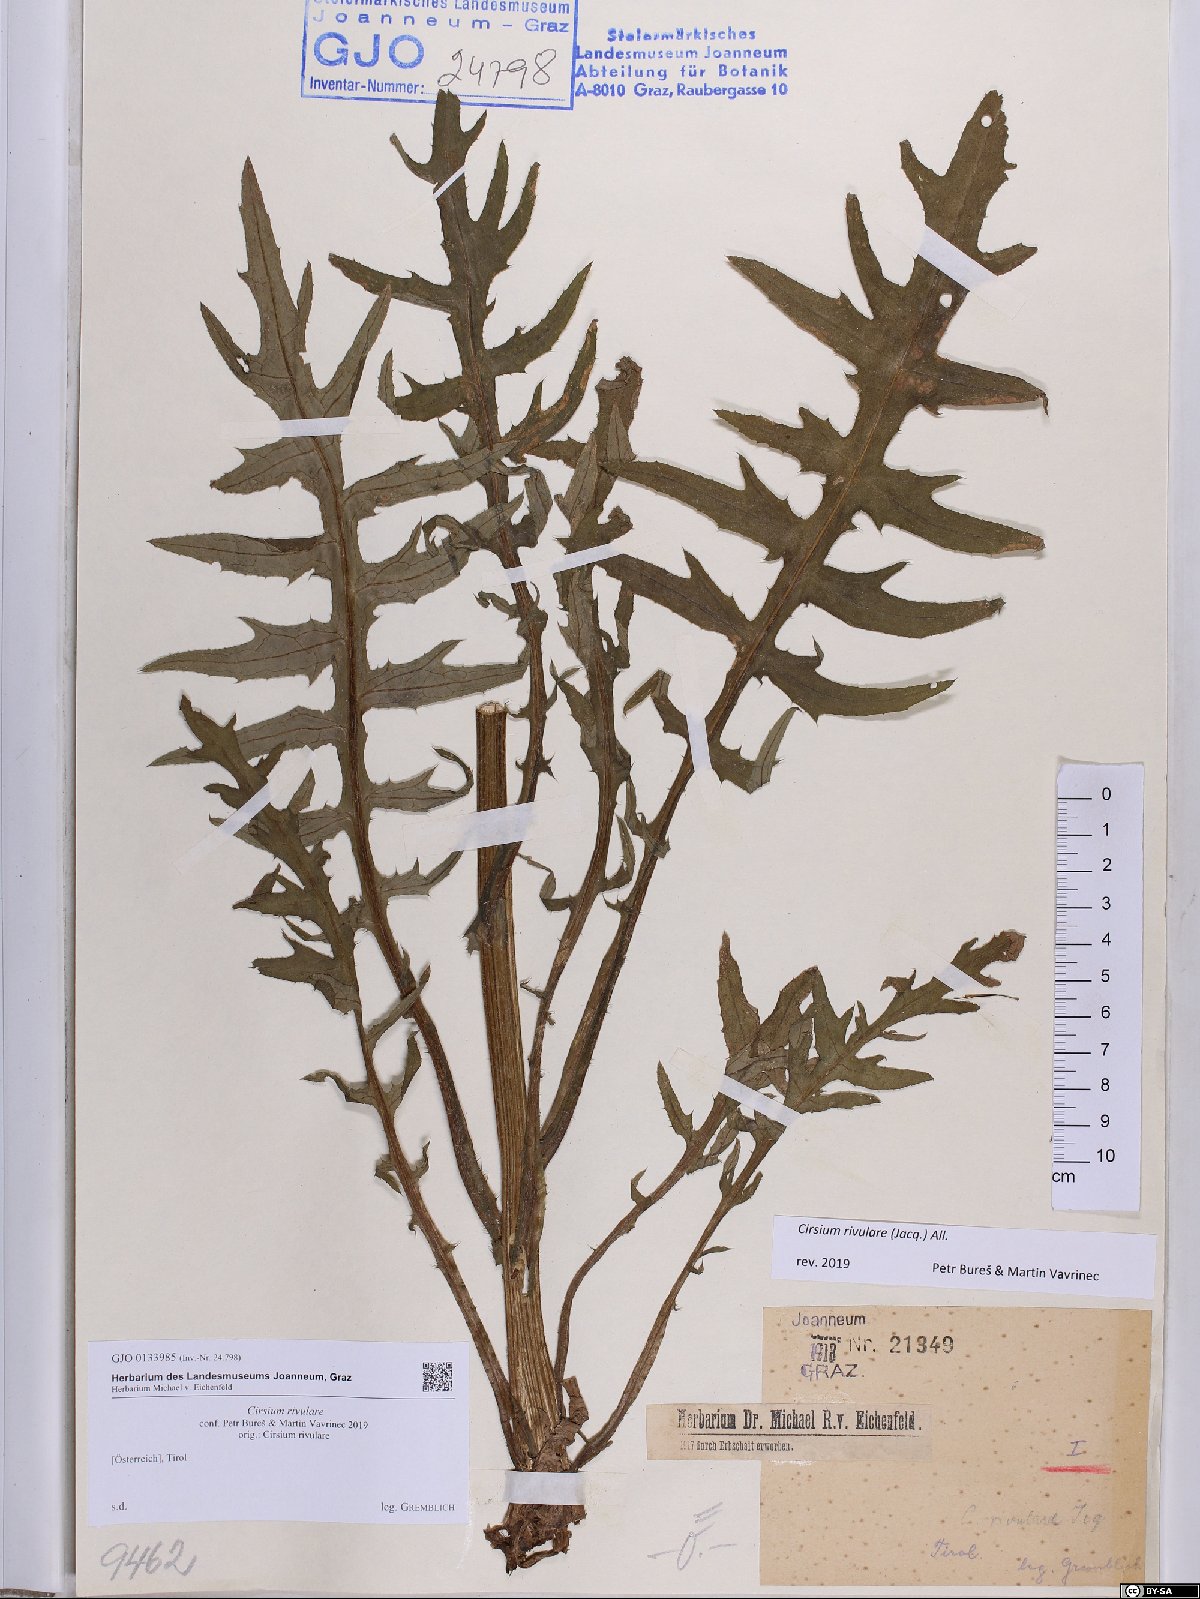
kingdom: Plantae
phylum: Tracheophyta
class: Magnoliopsida
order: Asterales
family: Asteraceae
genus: Cirsium
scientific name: Cirsium rivulare
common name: Brook thistle
